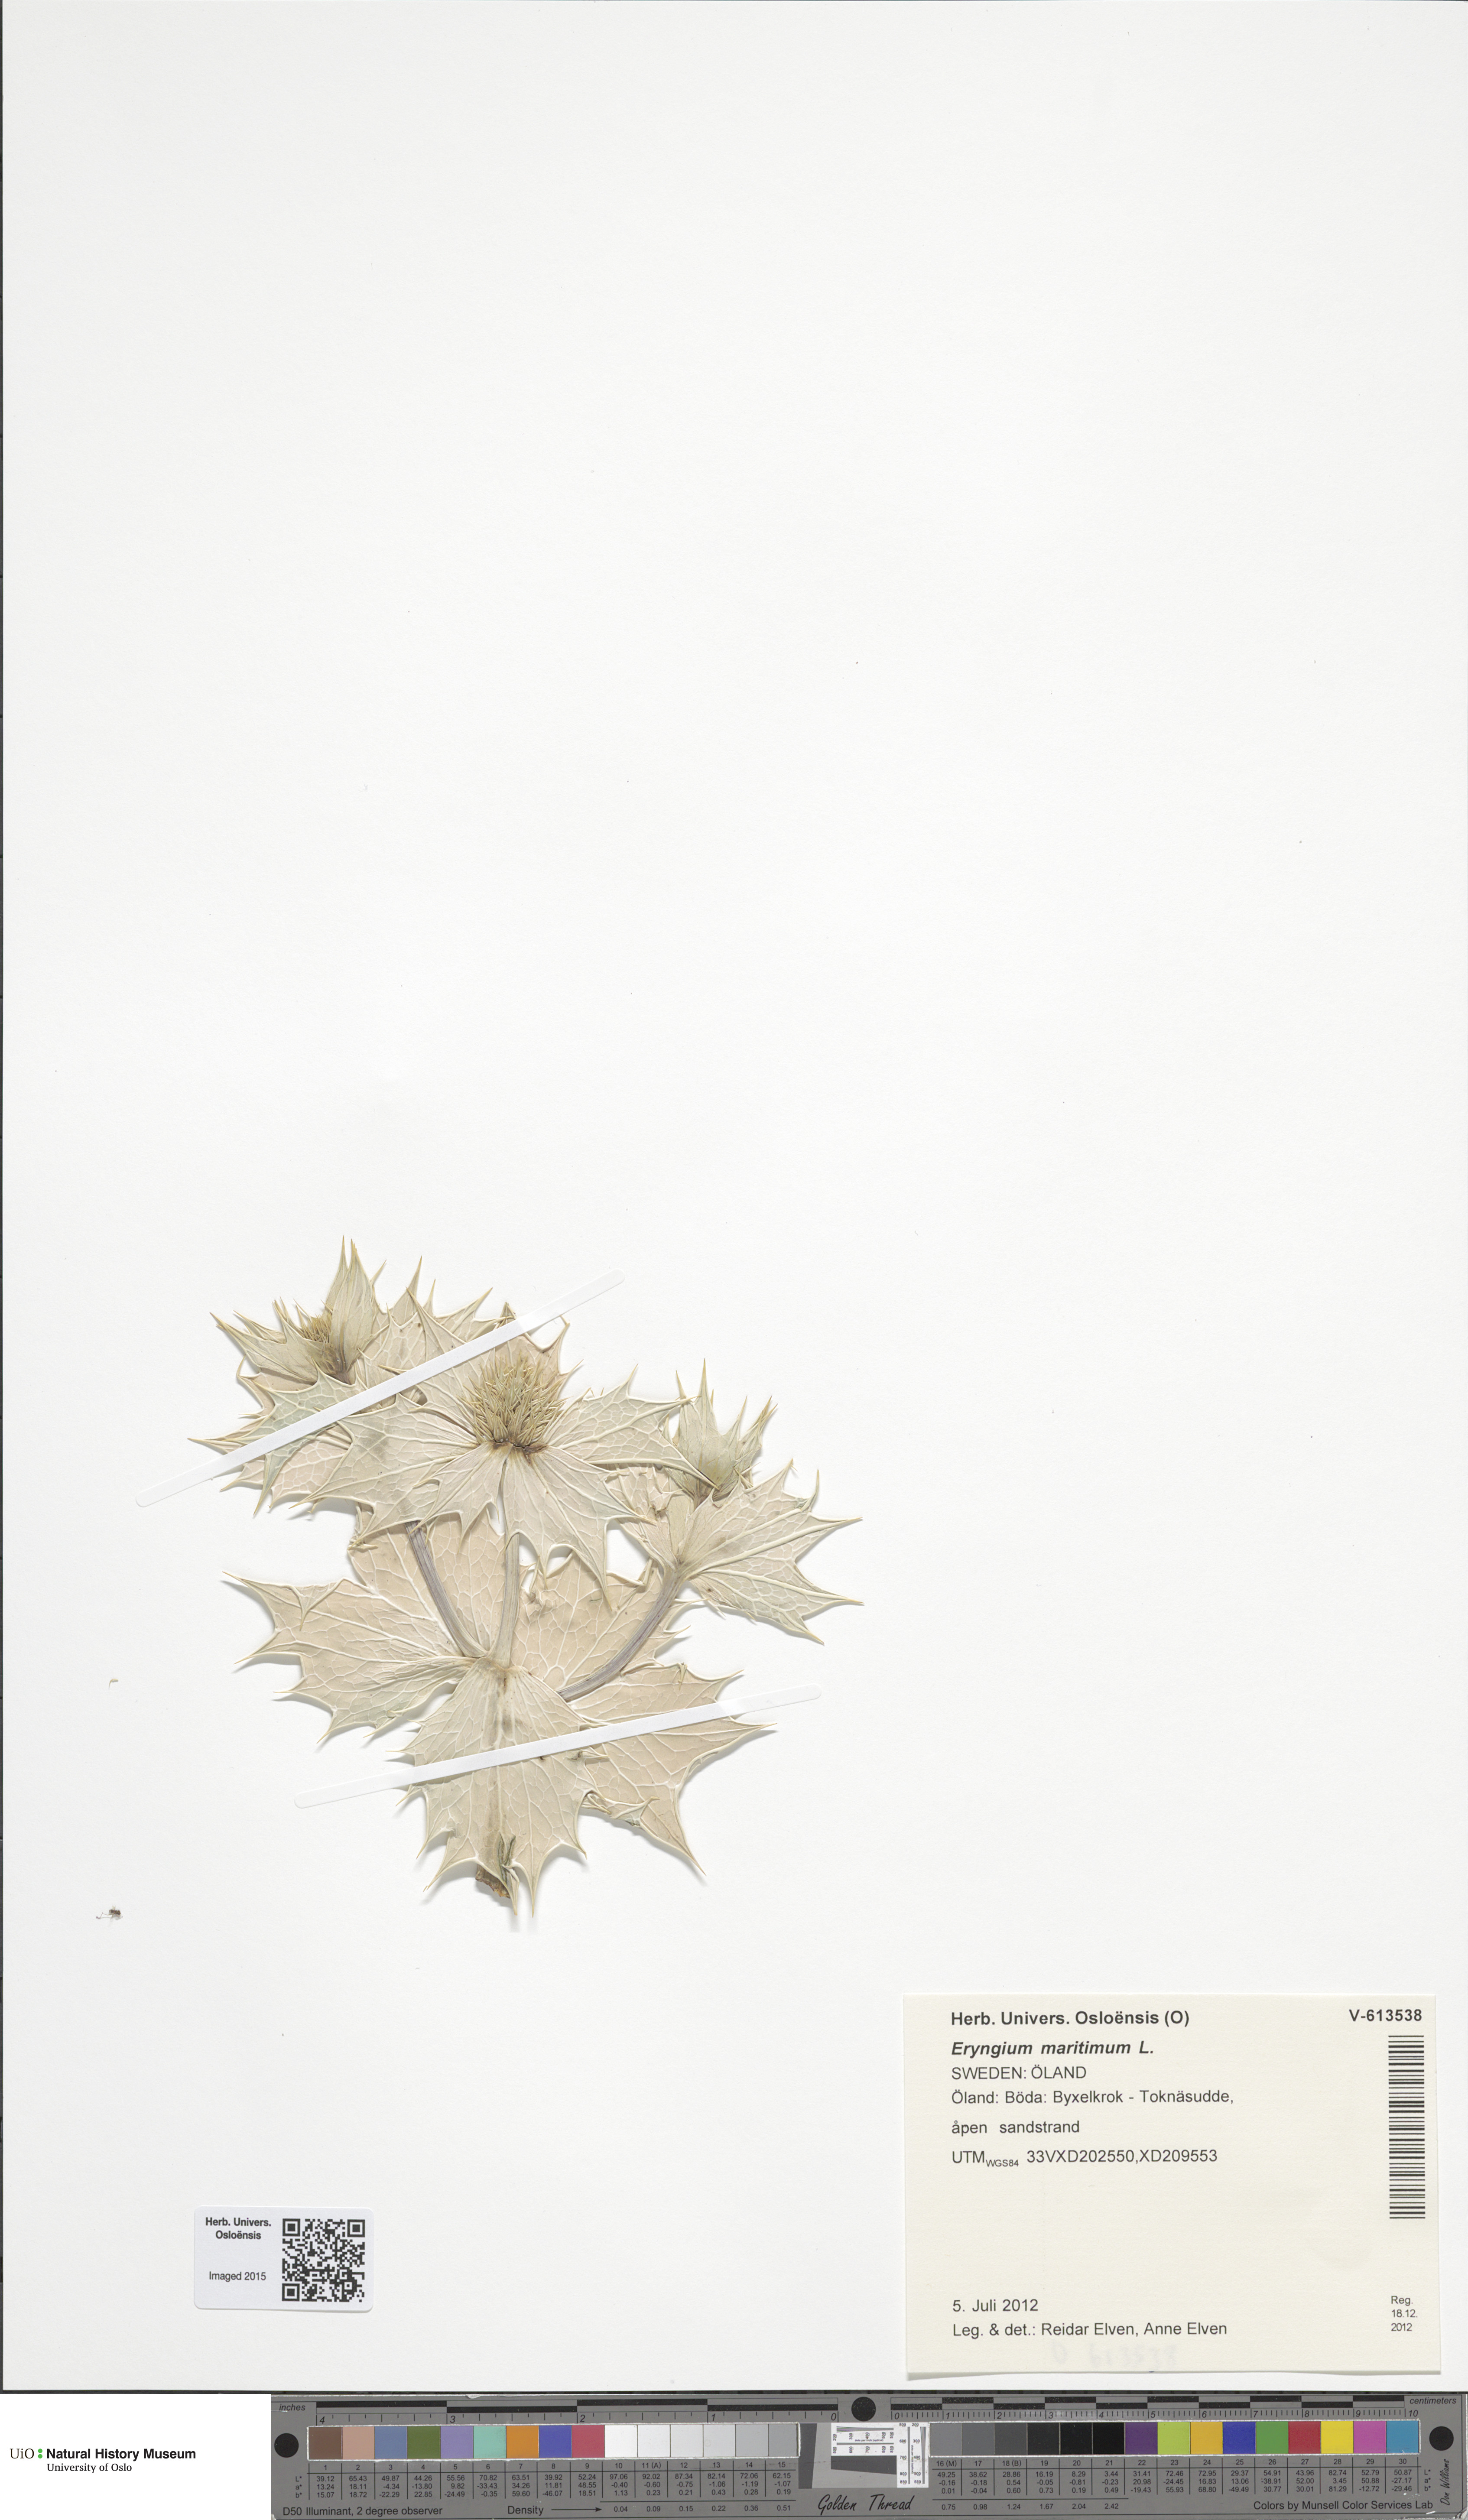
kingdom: Plantae
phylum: Tracheophyta
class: Magnoliopsida
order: Apiales
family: Apiaceae
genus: Eryngium
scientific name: Eryngium maritimum
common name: Sea-holly
